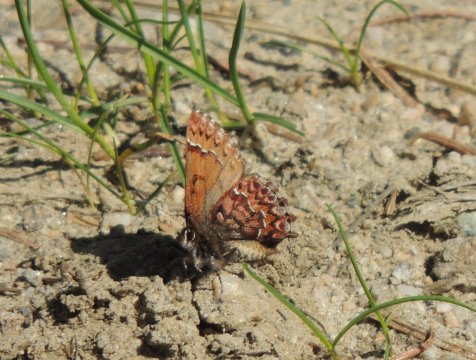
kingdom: Animalia
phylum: Arthropoda
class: Insecta
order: Lepidoptera
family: Lycaenidae
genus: Incisalia
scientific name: Incisalia eryphon
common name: Western Pine Elfin
